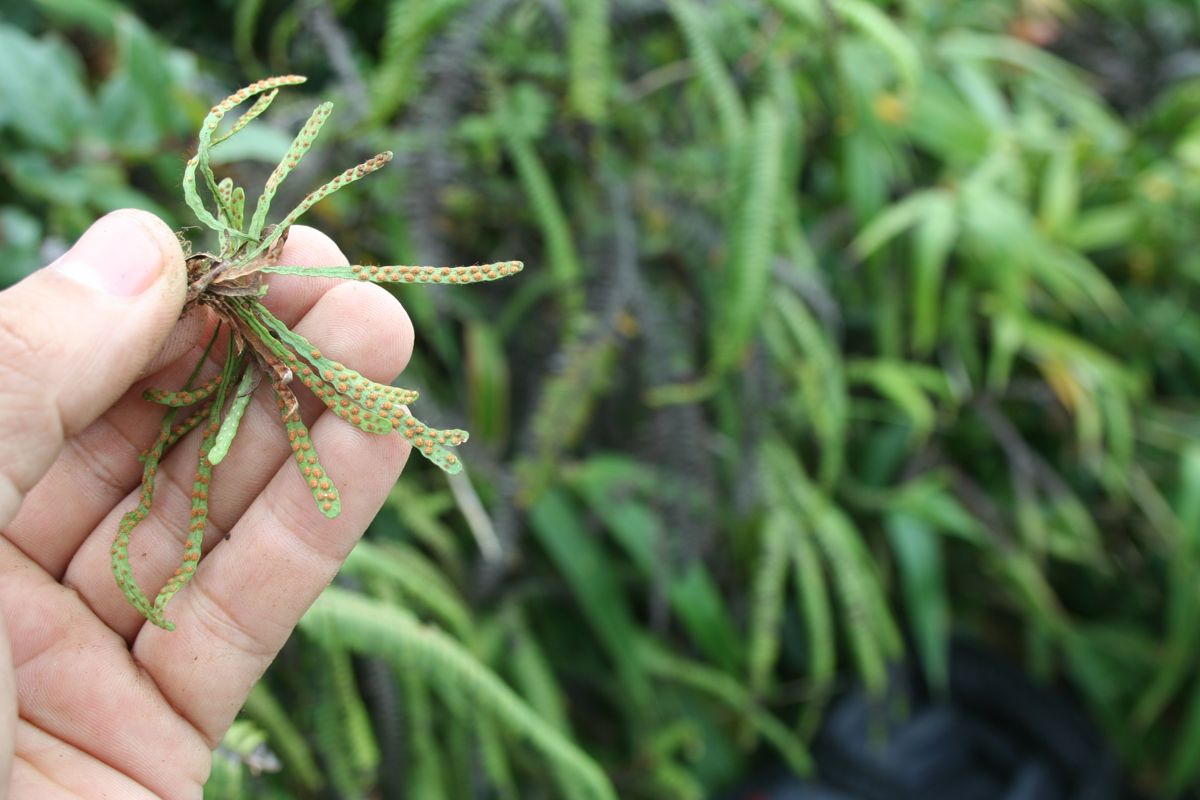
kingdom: Plantae
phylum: Tracheophyta
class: Polypodiopsida
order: Polypodiales
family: Polypodiaceae
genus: Ceradenia
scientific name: Ceradenia jungermannioides
